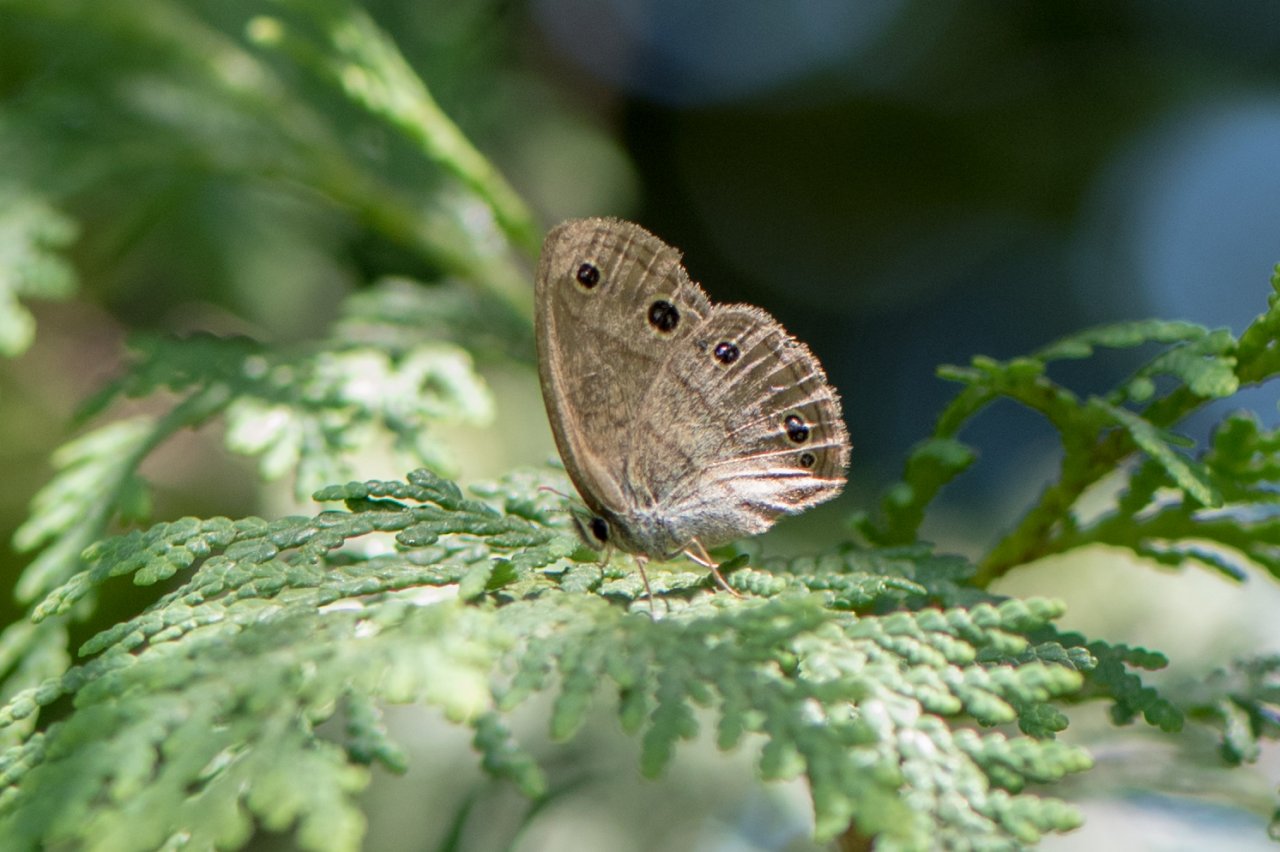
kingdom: Animalia
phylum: Arthropoda
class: Insecta
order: Lepidoptera
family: Nymphalidae
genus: Euptychia
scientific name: Euptychia cymela
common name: Little Wood Satyr
